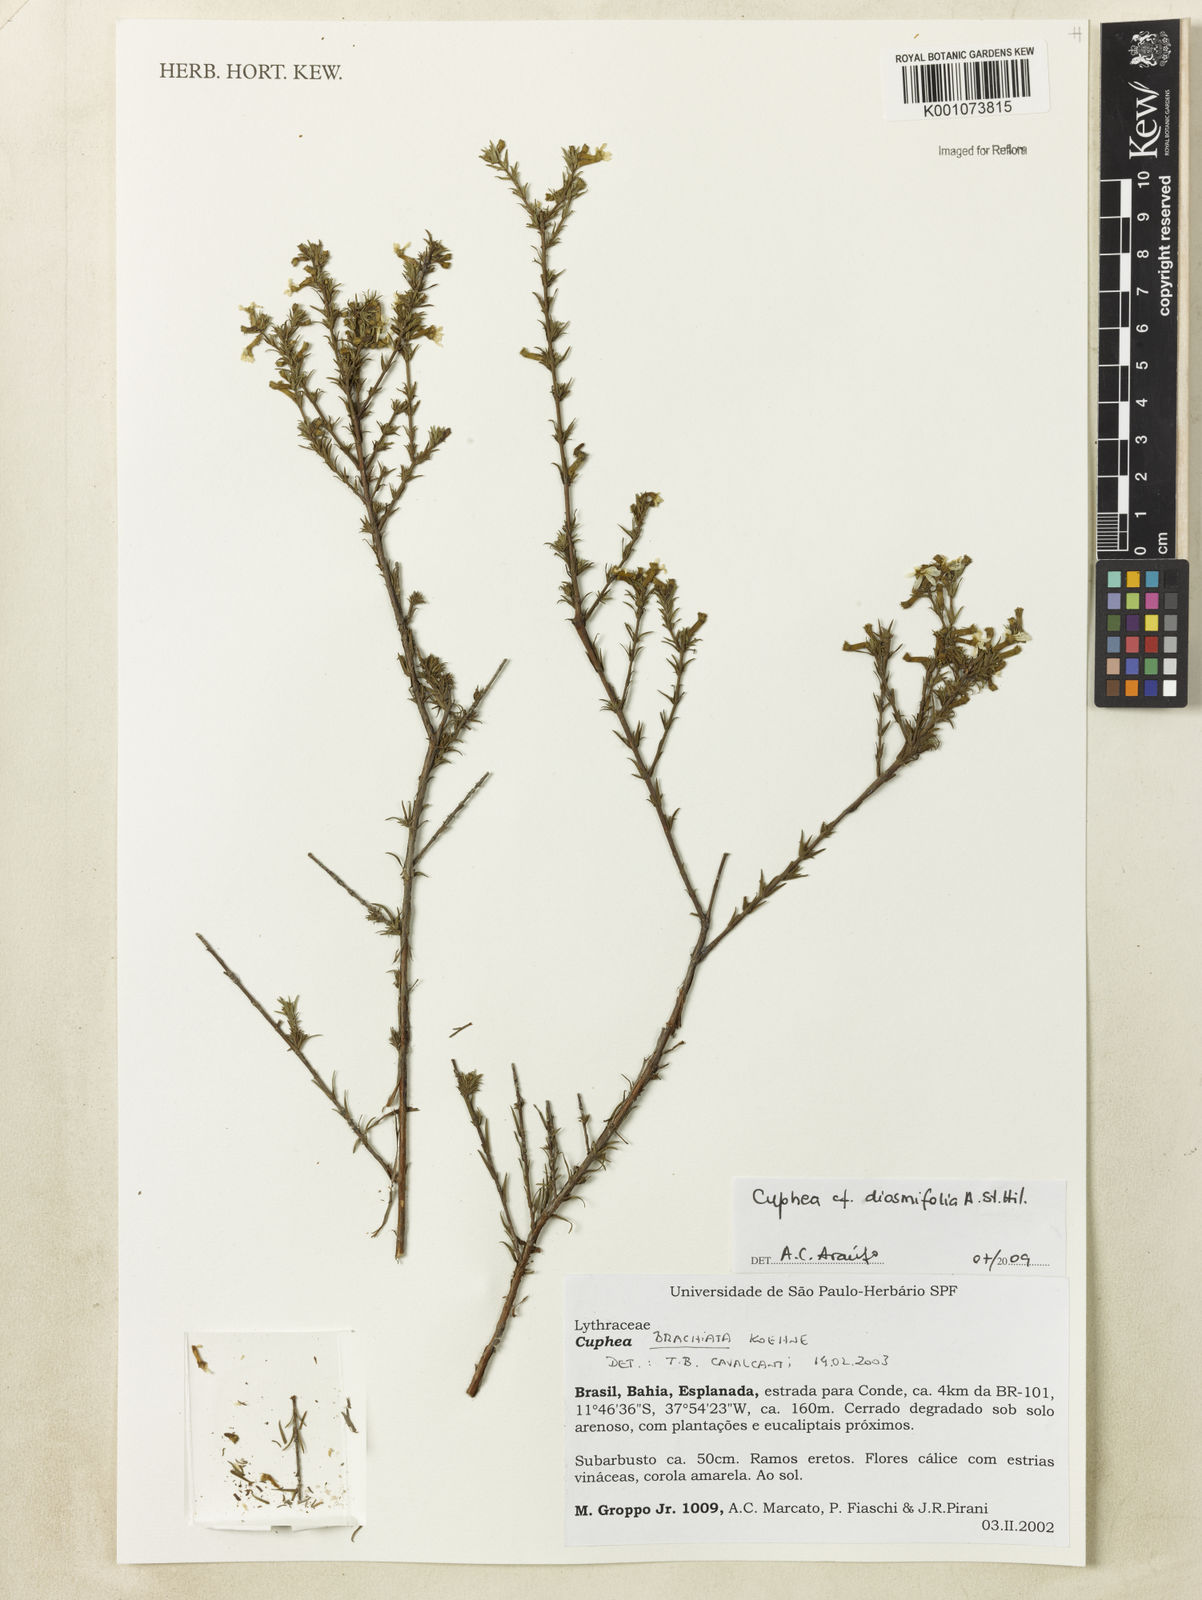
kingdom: Plantae
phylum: Tracheophyta
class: Magnoliopsida
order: Myrtales
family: Lythraceae
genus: Cuphea
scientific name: Cuphea diosmifolia
